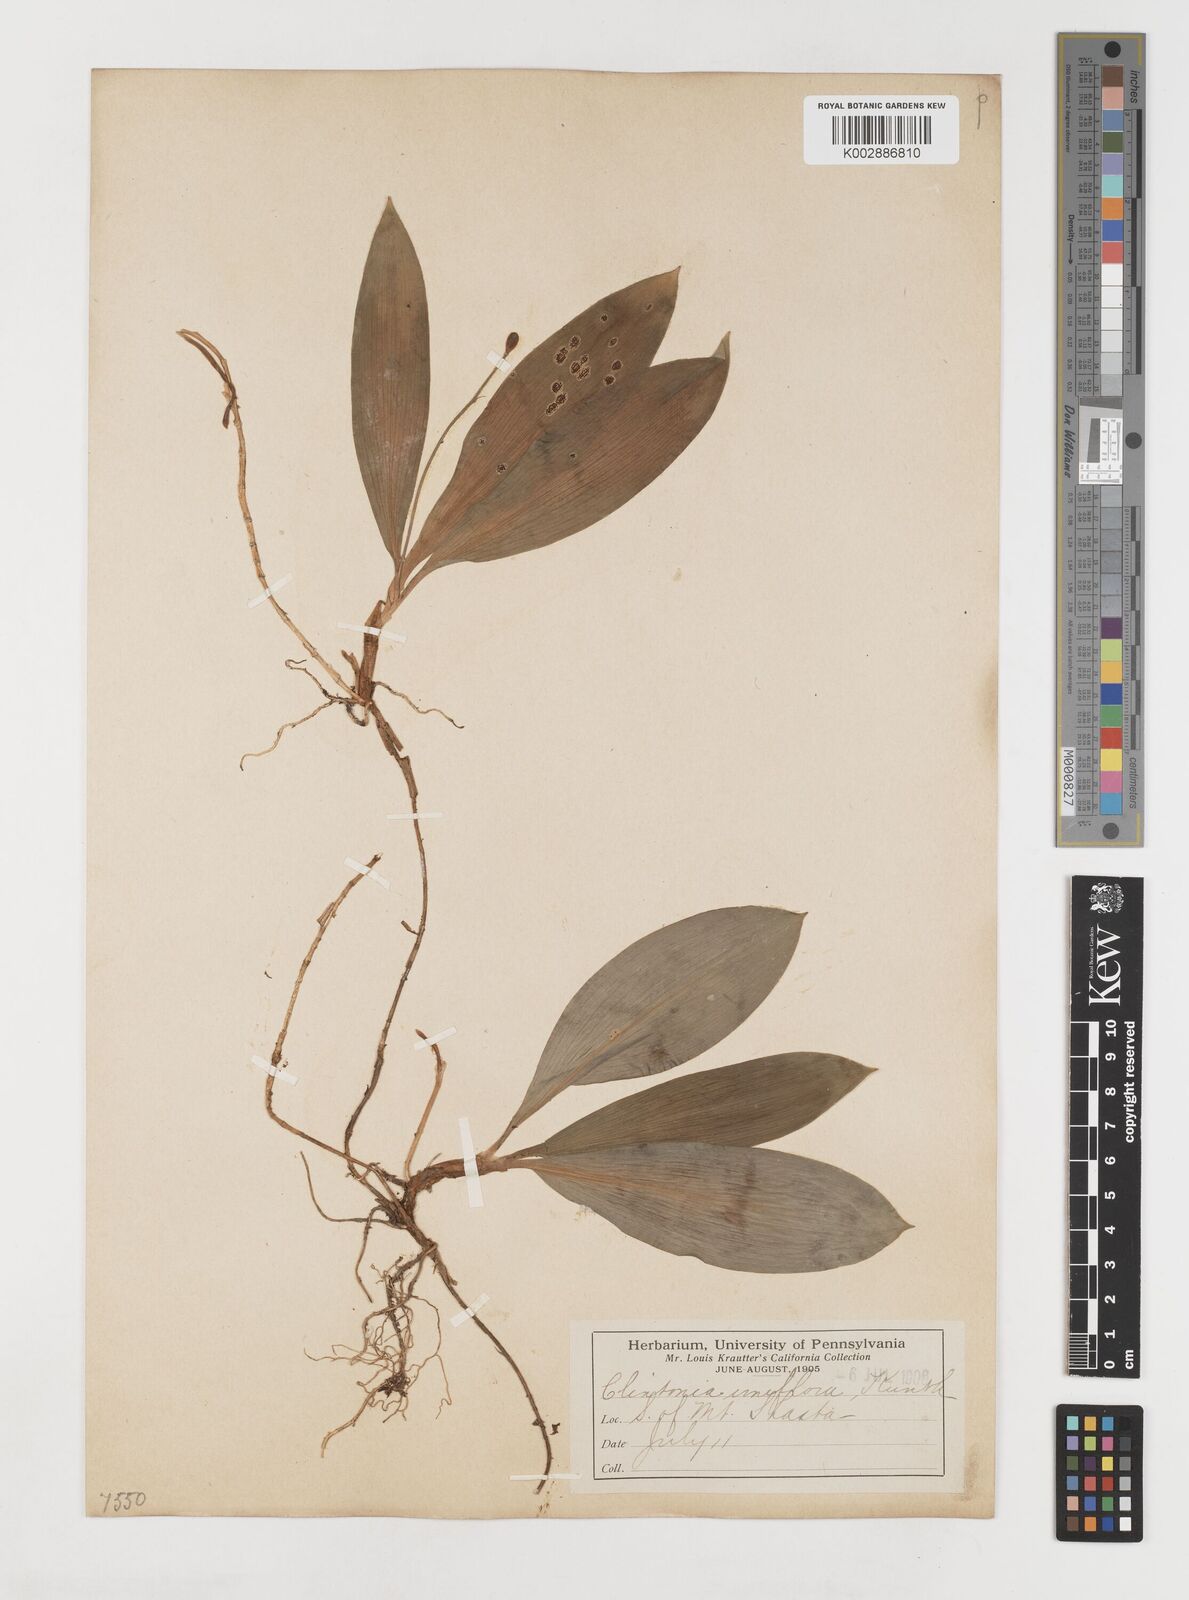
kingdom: Plantae
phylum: Tracheophyta
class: Liliopsida
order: Liliales
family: Liliaceae
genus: Clintonia
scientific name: Clintonia uniflora
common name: Queen's cup
